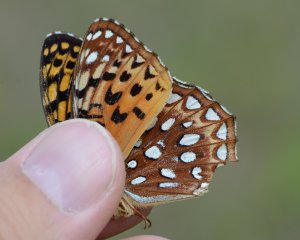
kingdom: Animalia
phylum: Arthropoda
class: Insecta
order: Lepidoptera
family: Nymphalidae
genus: Speyeria
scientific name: Speyeria aphrodite
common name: Aphrodite Fritillary
